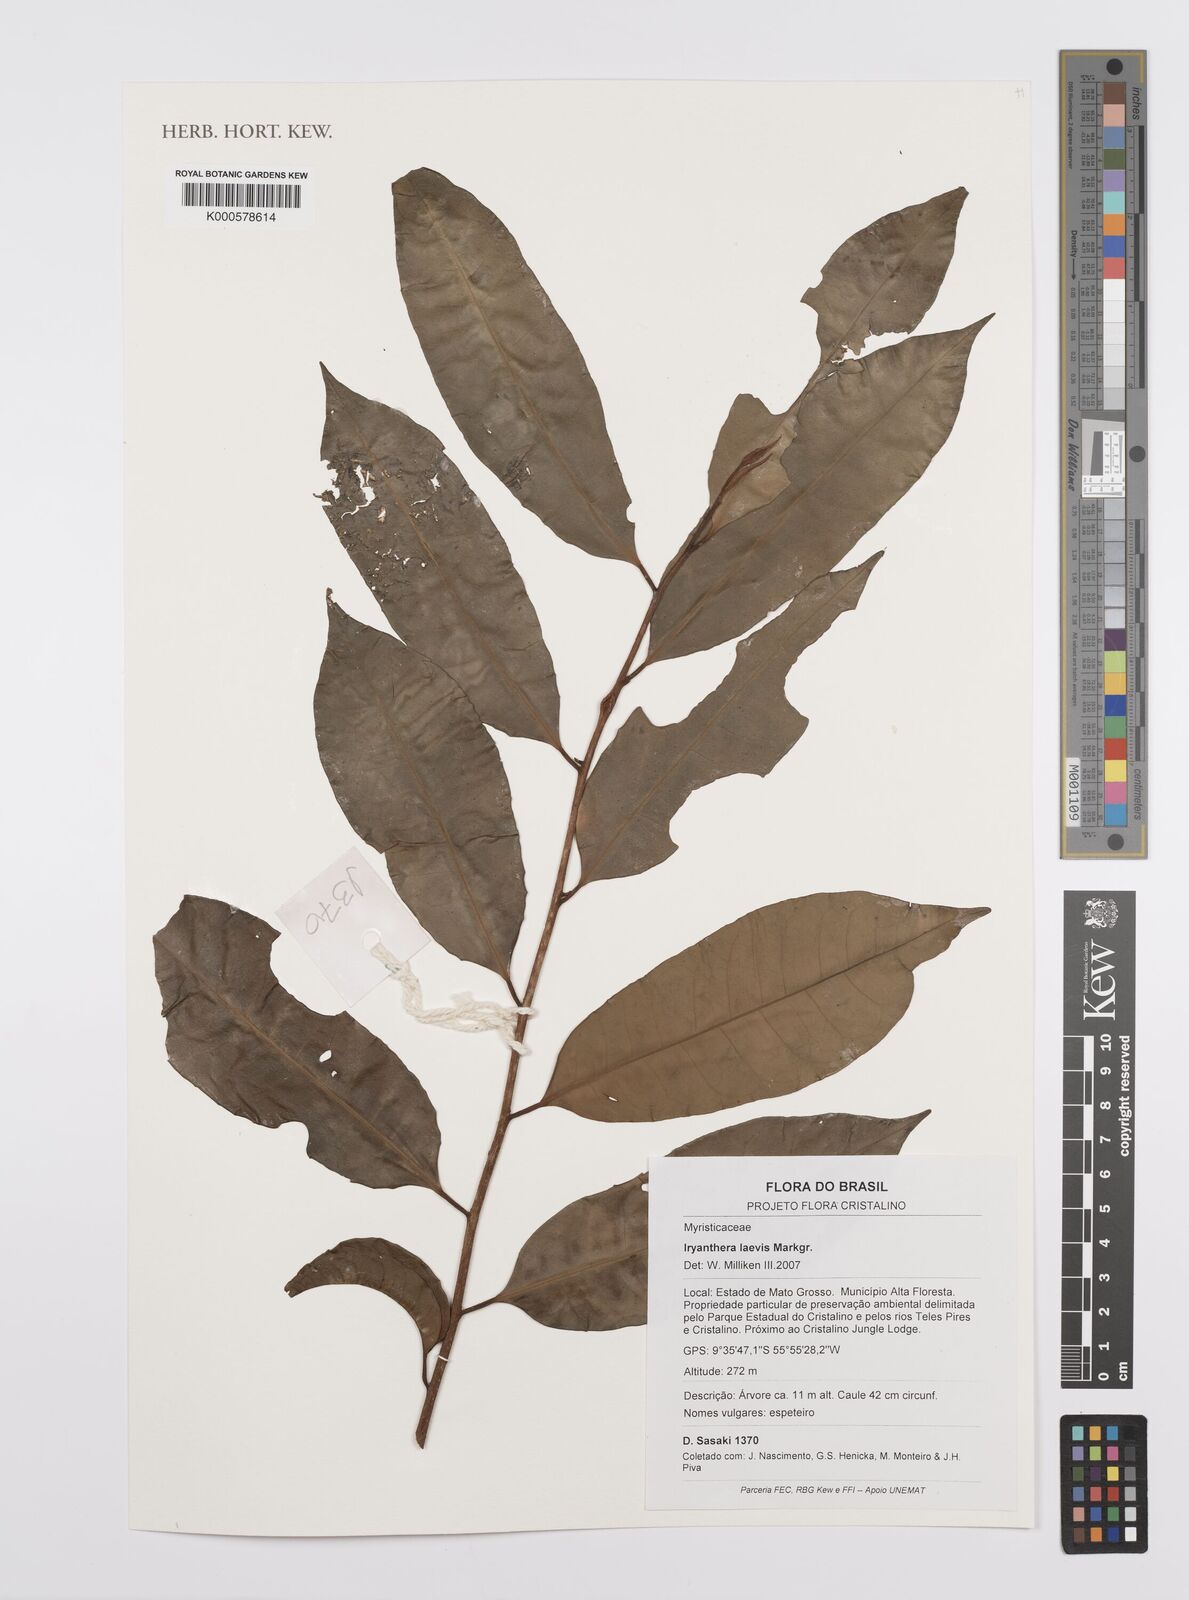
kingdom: Plantae
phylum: Tracheophyta
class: Magnoliopsida
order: Magnoliales
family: Myristicaceae
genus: Iryanthera
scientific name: Iryanthera laevis
